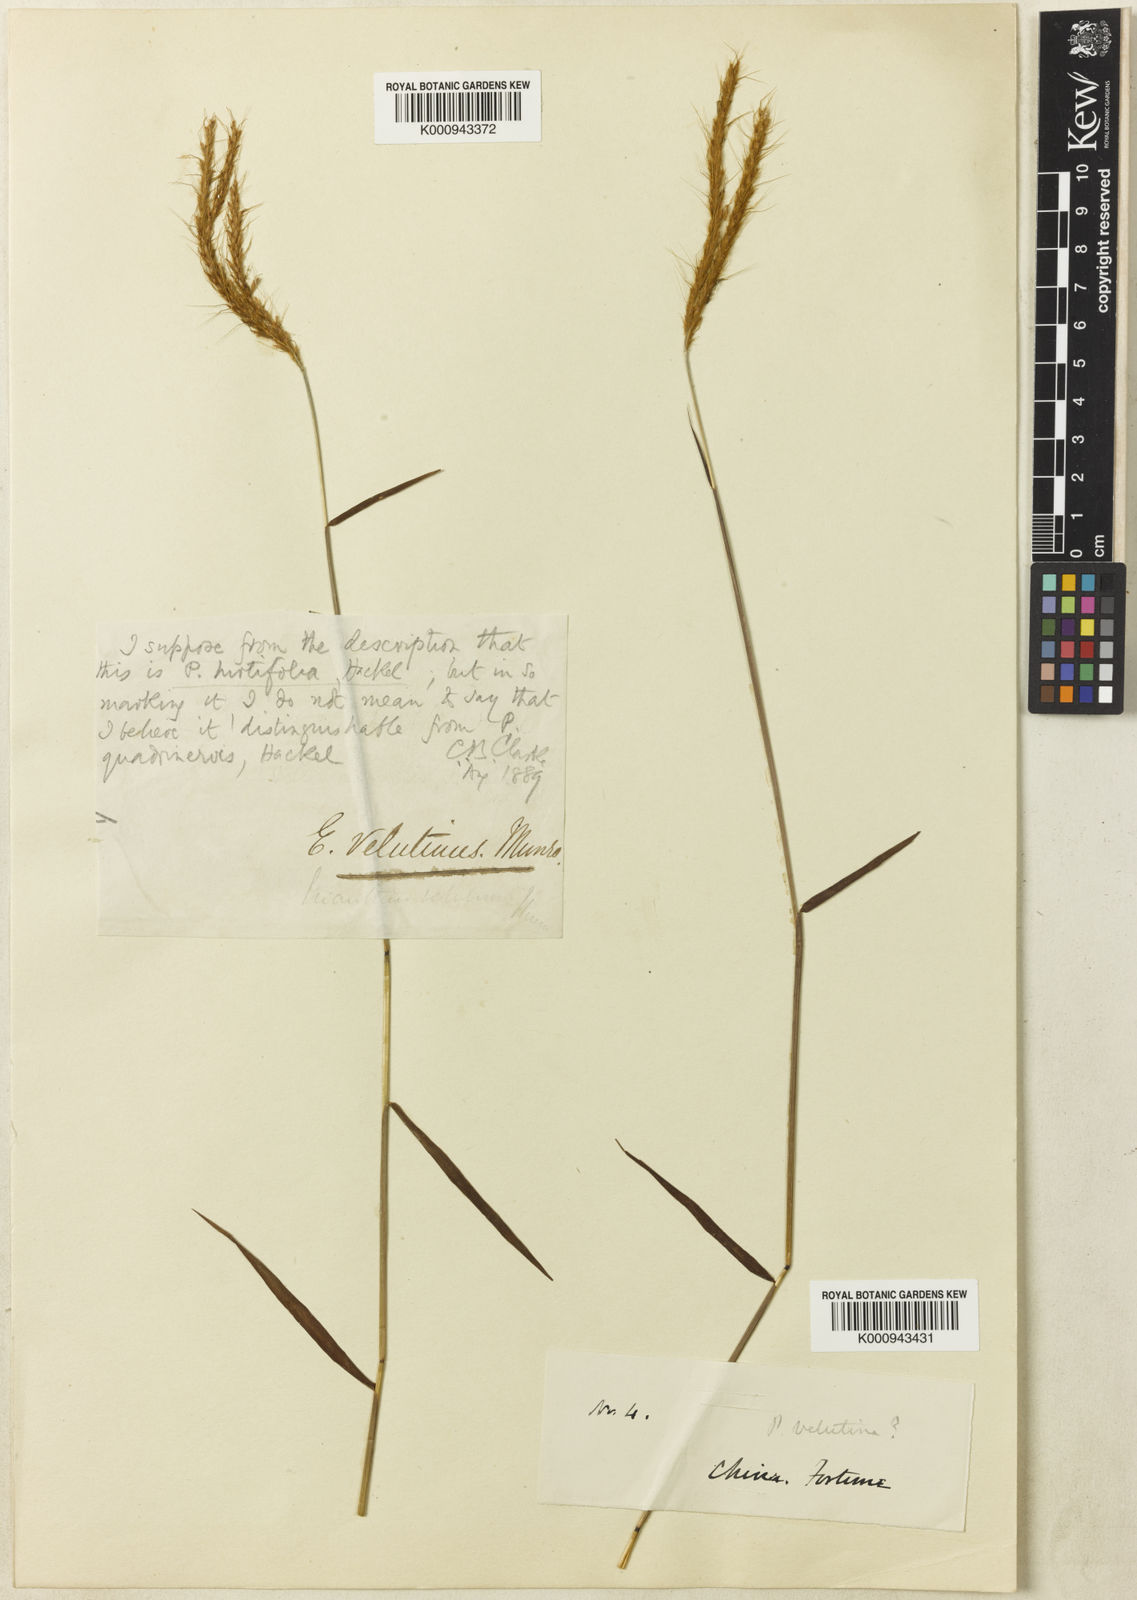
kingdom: Plantae
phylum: Tracheophyta
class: Liliopsida
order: Poales
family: Poaceae
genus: Eulalia
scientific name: Eulalia leschenaultiana
